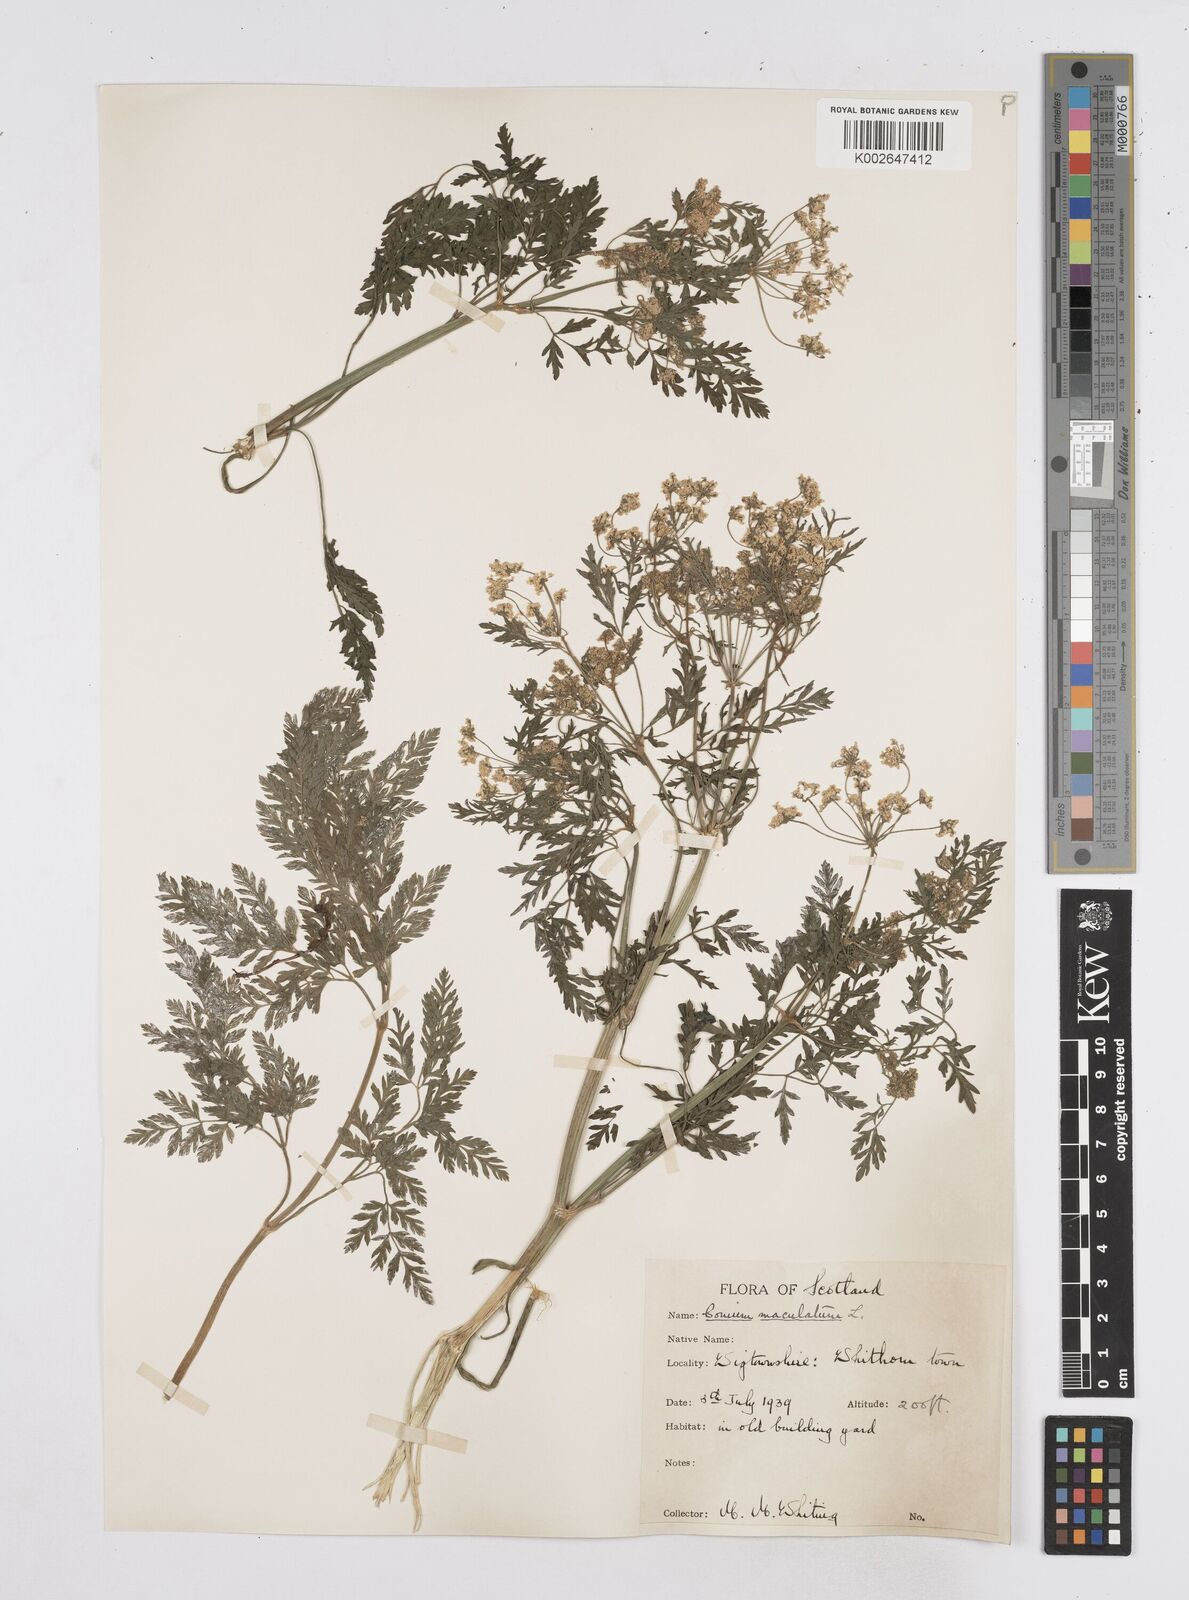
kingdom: Plantae
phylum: Tracheophyta
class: Magnoliopsida
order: Apiales
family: Apiaceae
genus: Conium
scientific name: Conium maculatum
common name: Hemlock
